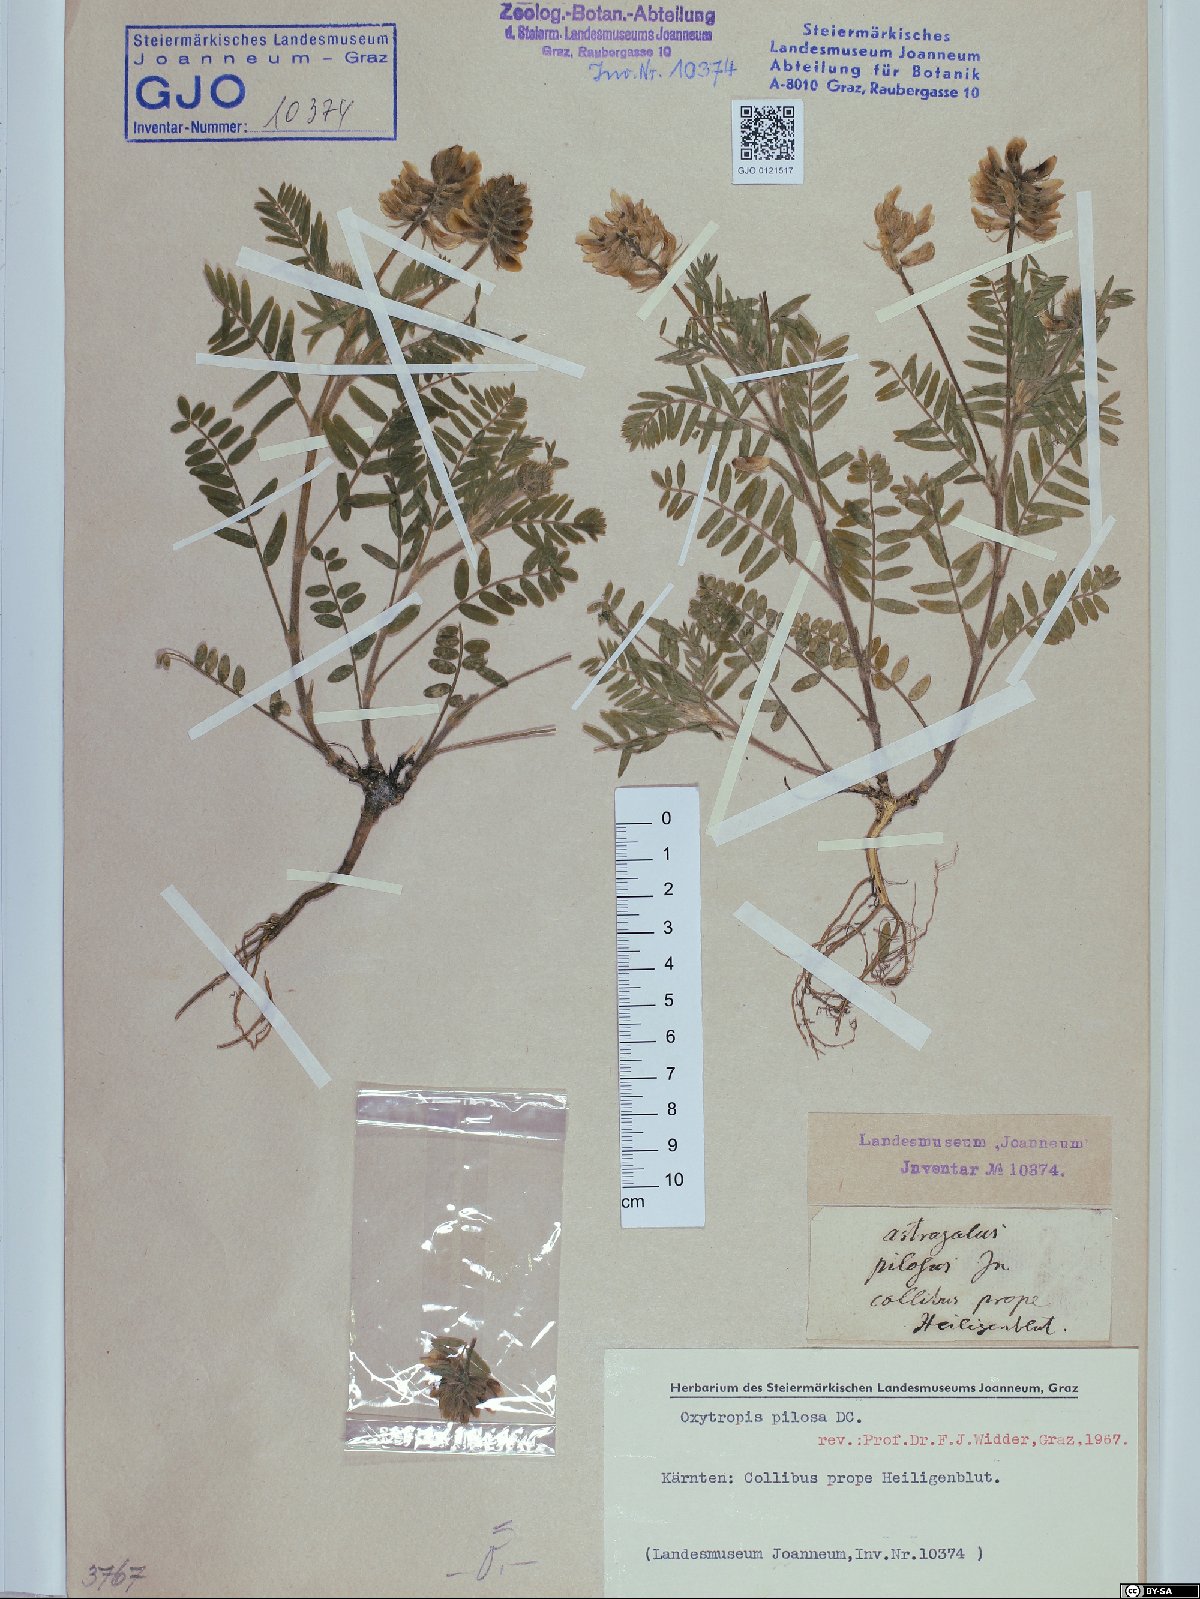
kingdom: Plantae
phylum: Tracheophyta
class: Magnoliopsida
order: Fabales
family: Fabaceae
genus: Oxytropis
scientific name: Oxytropis pilosa
